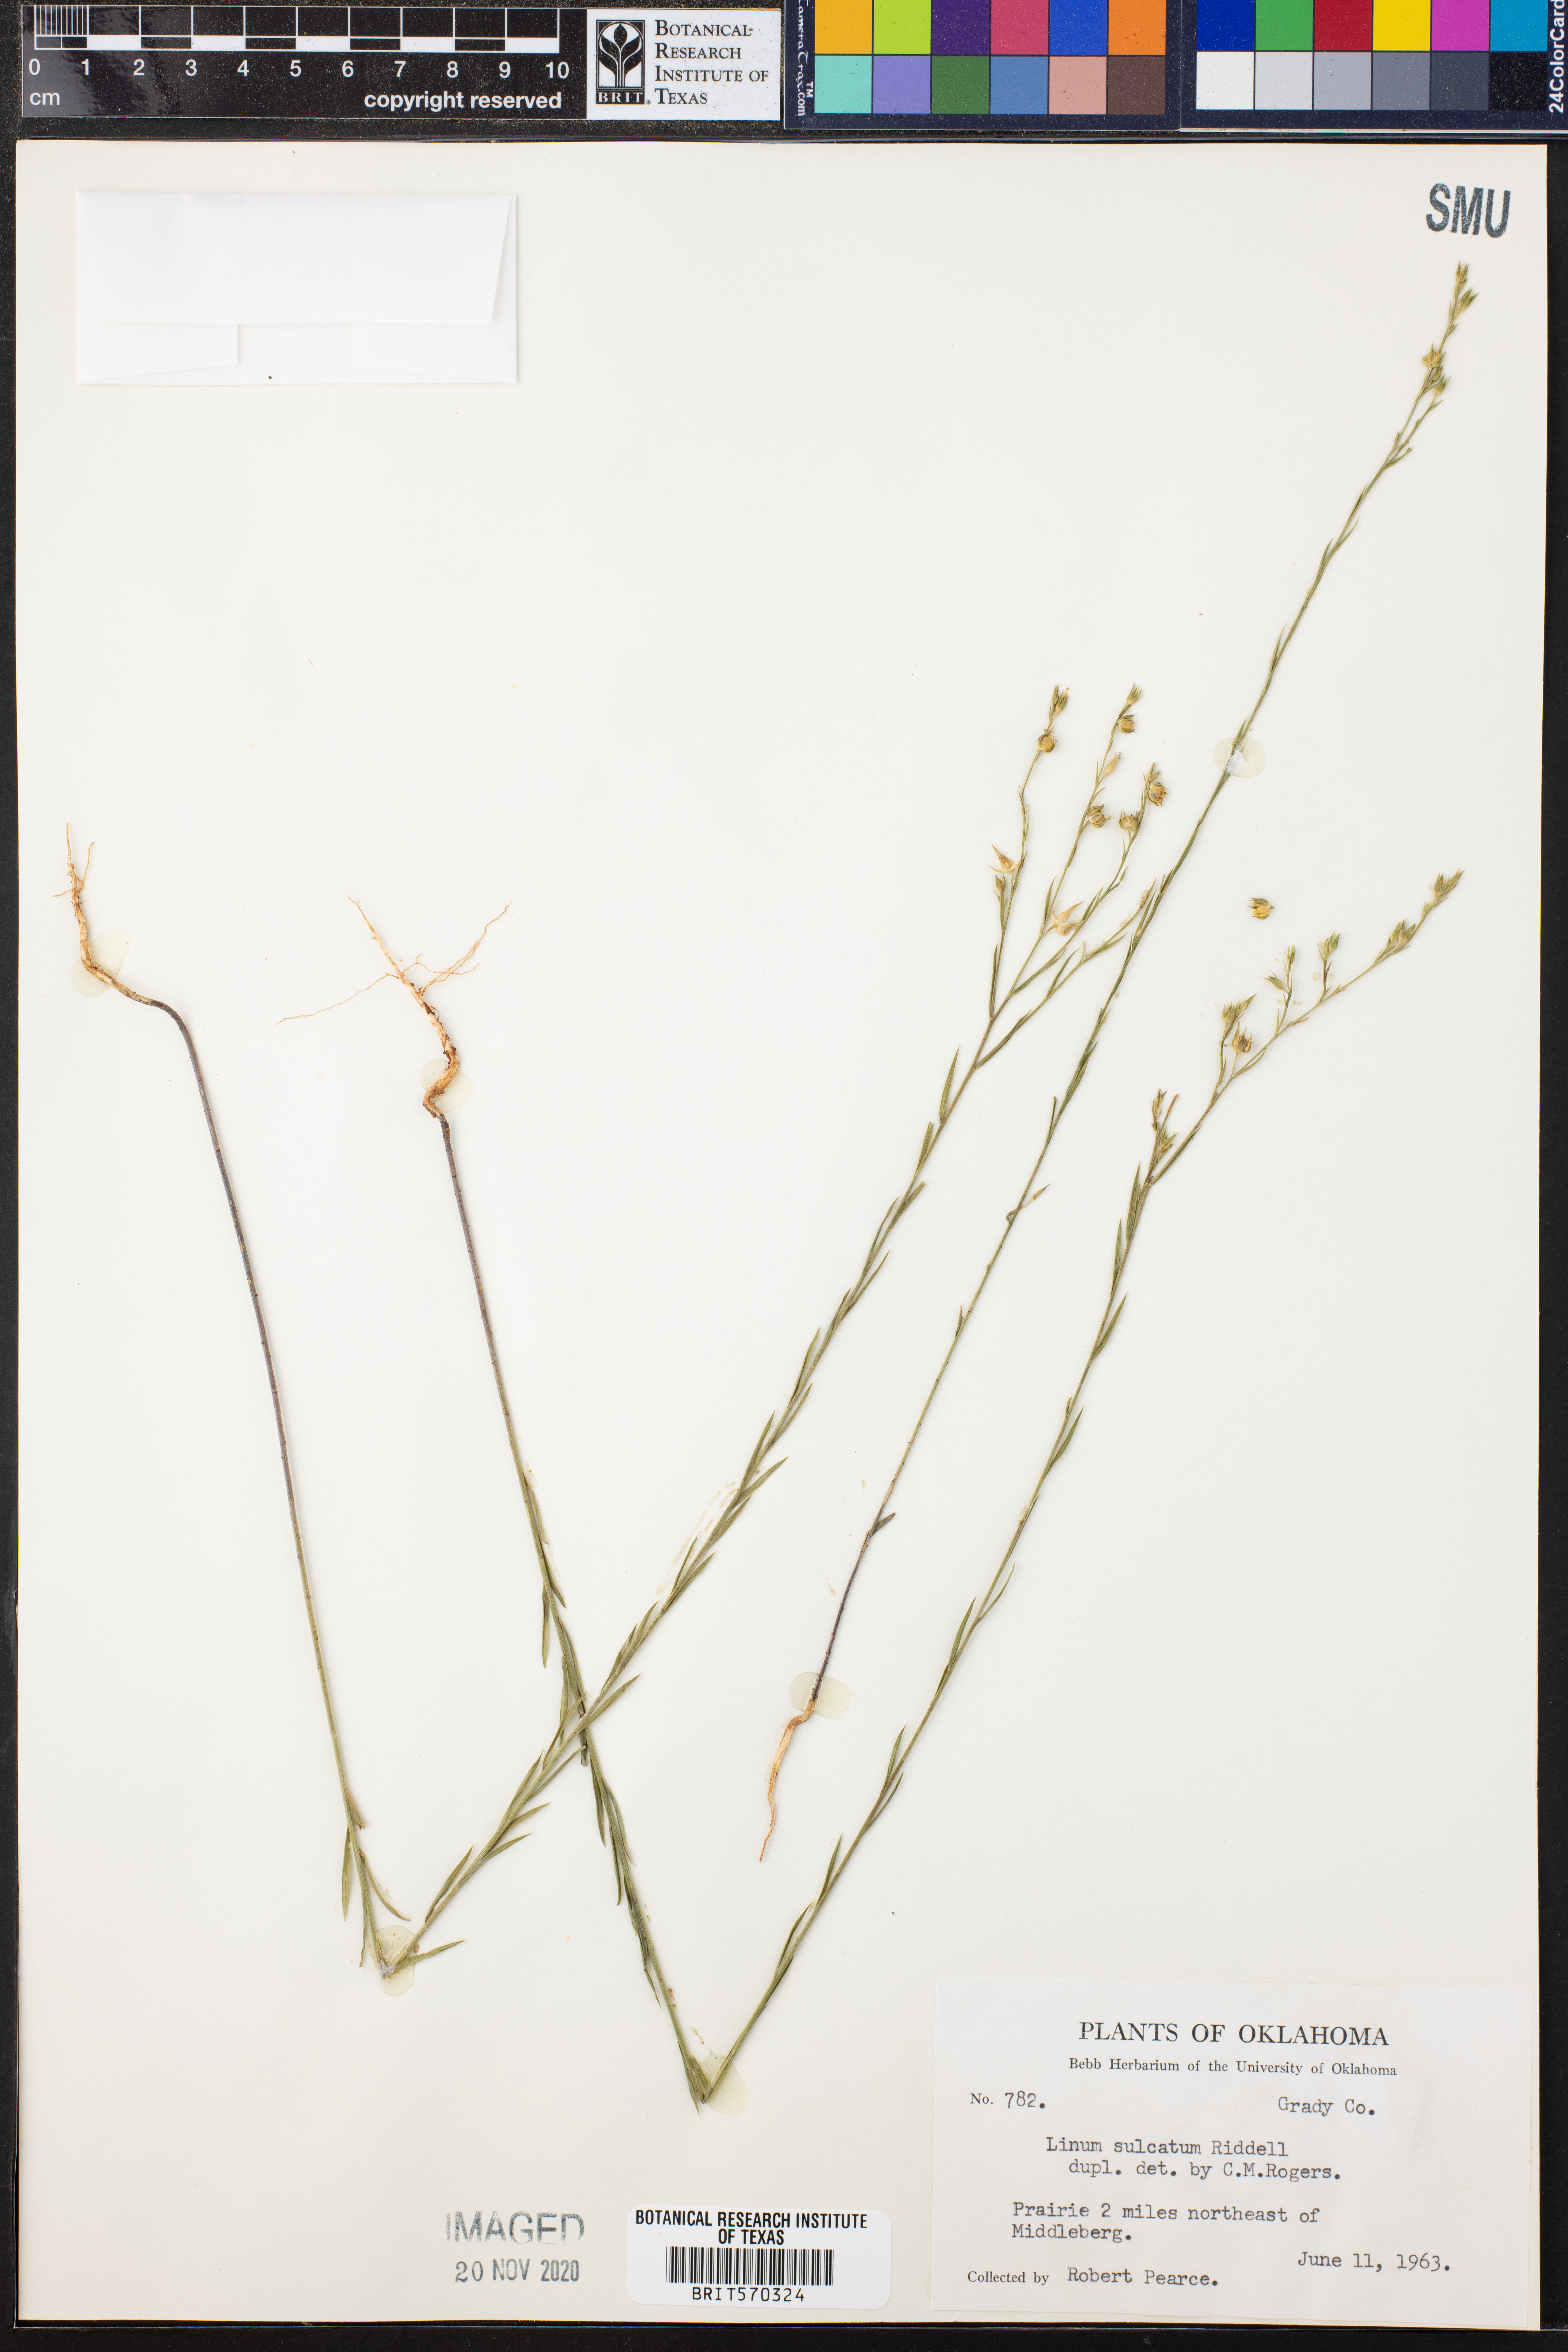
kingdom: Plantae
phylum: Tracheophyta
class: Magnoliopsida
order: Malpighiales
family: Linaceae
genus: Linum
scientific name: Linum sulcatum
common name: Grooved flax
